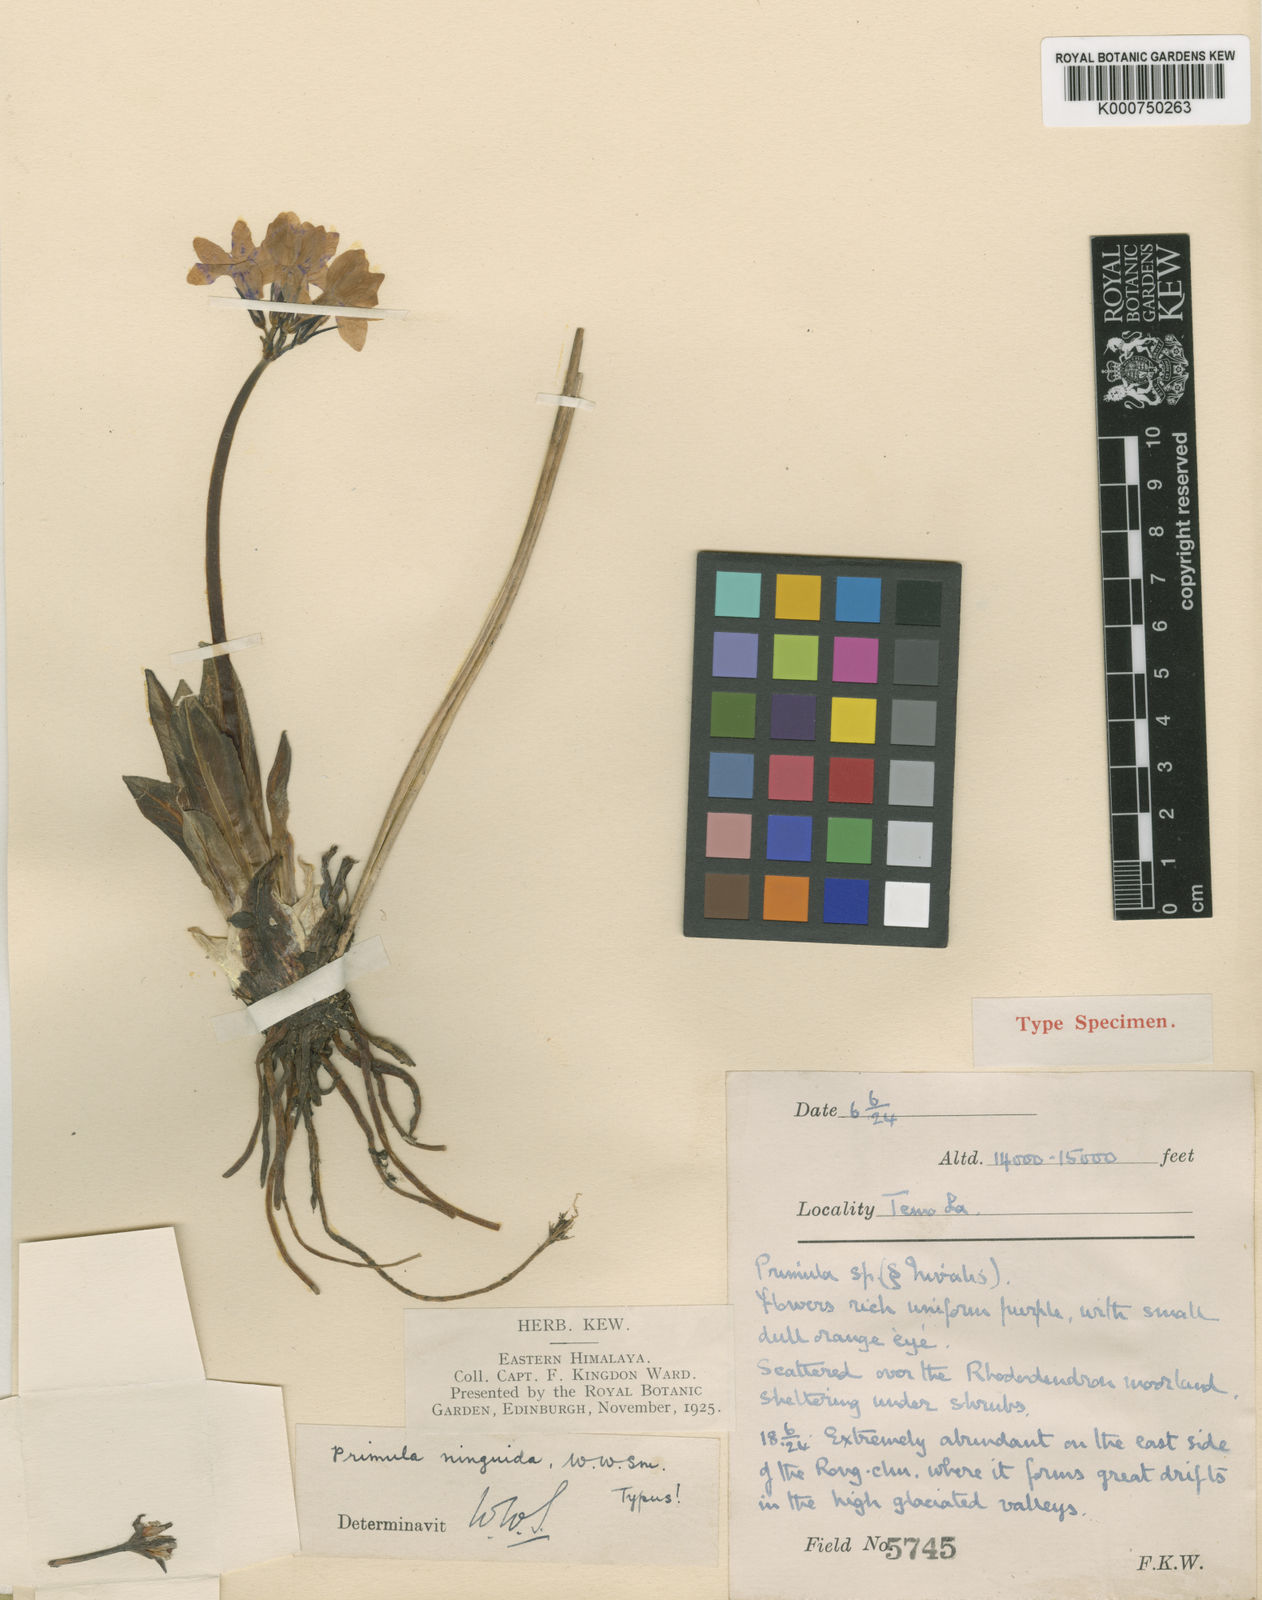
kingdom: Plantae
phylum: Tracheophyta
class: Magnoliopsida
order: Ericales
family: Primulaceae
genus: Primula
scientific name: Primula ninguida
